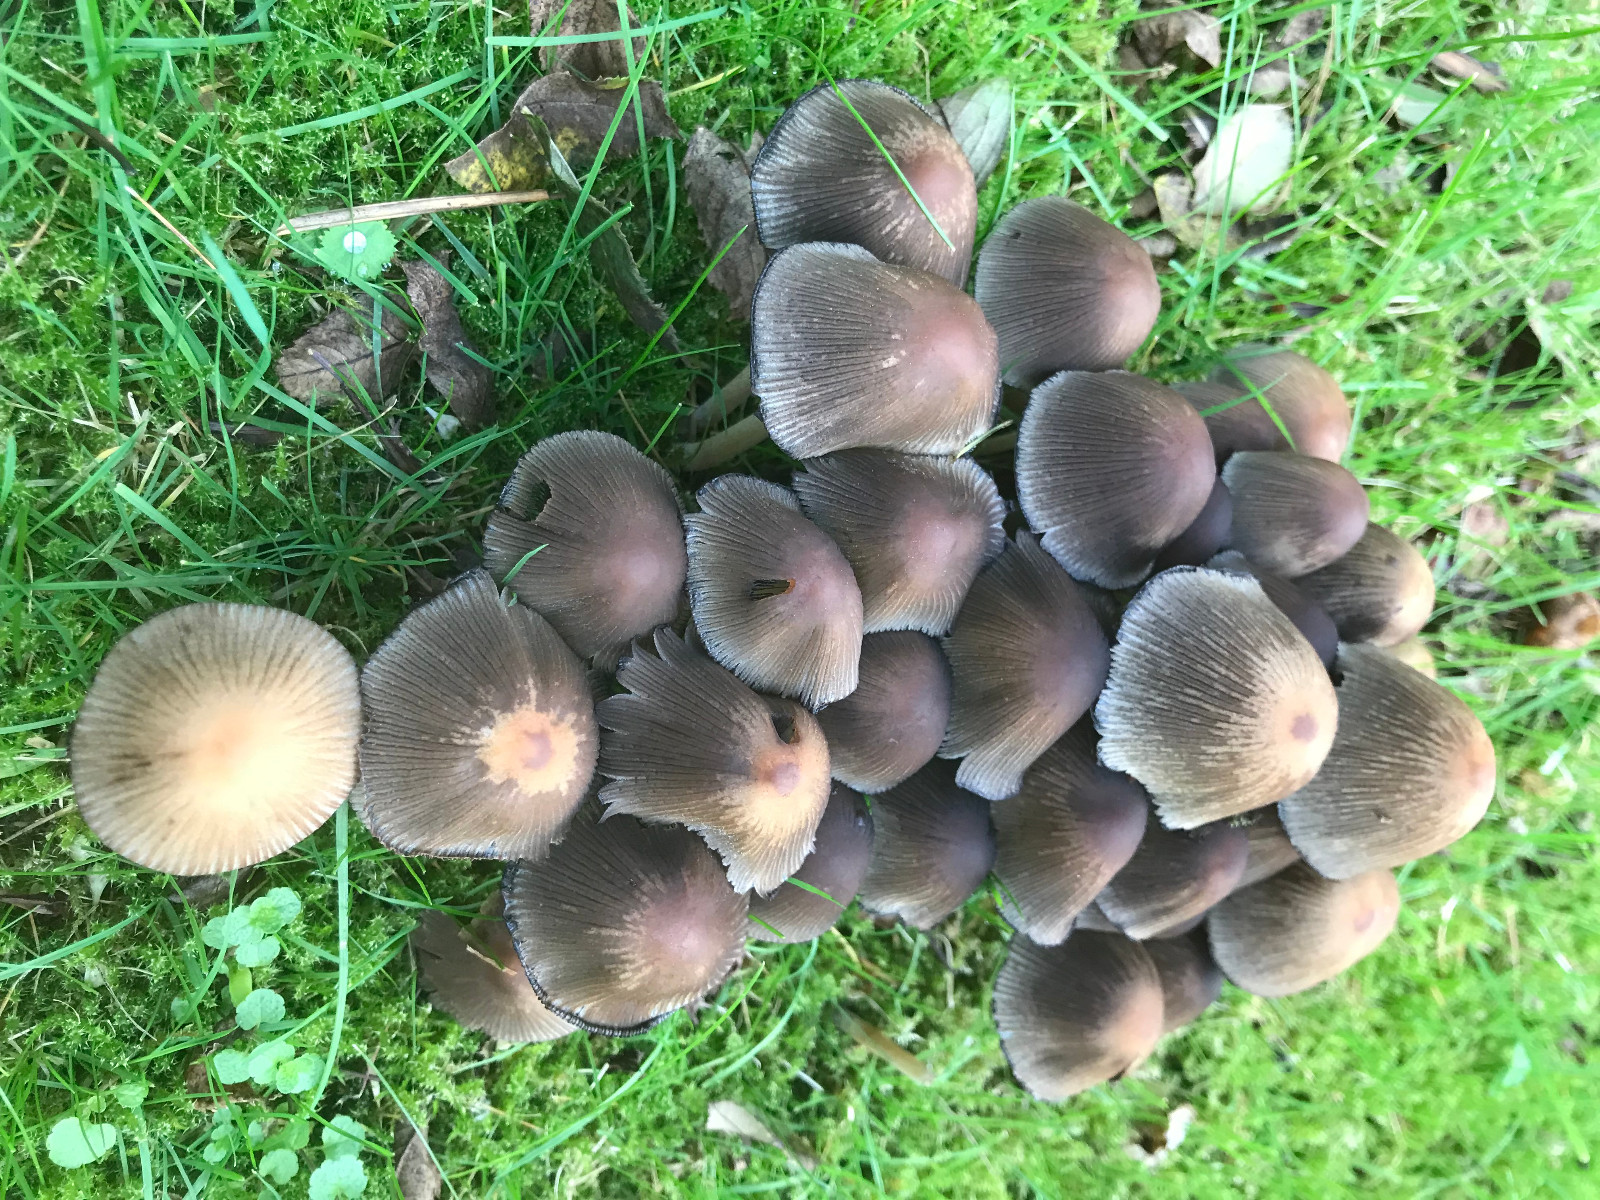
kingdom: Fungi
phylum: Basidiomycota
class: Agaricomycetes
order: Agaricales
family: Psathyrellaceae
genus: Coprinellus
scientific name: Coprinellus micaceus
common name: glimmer-blækhat
